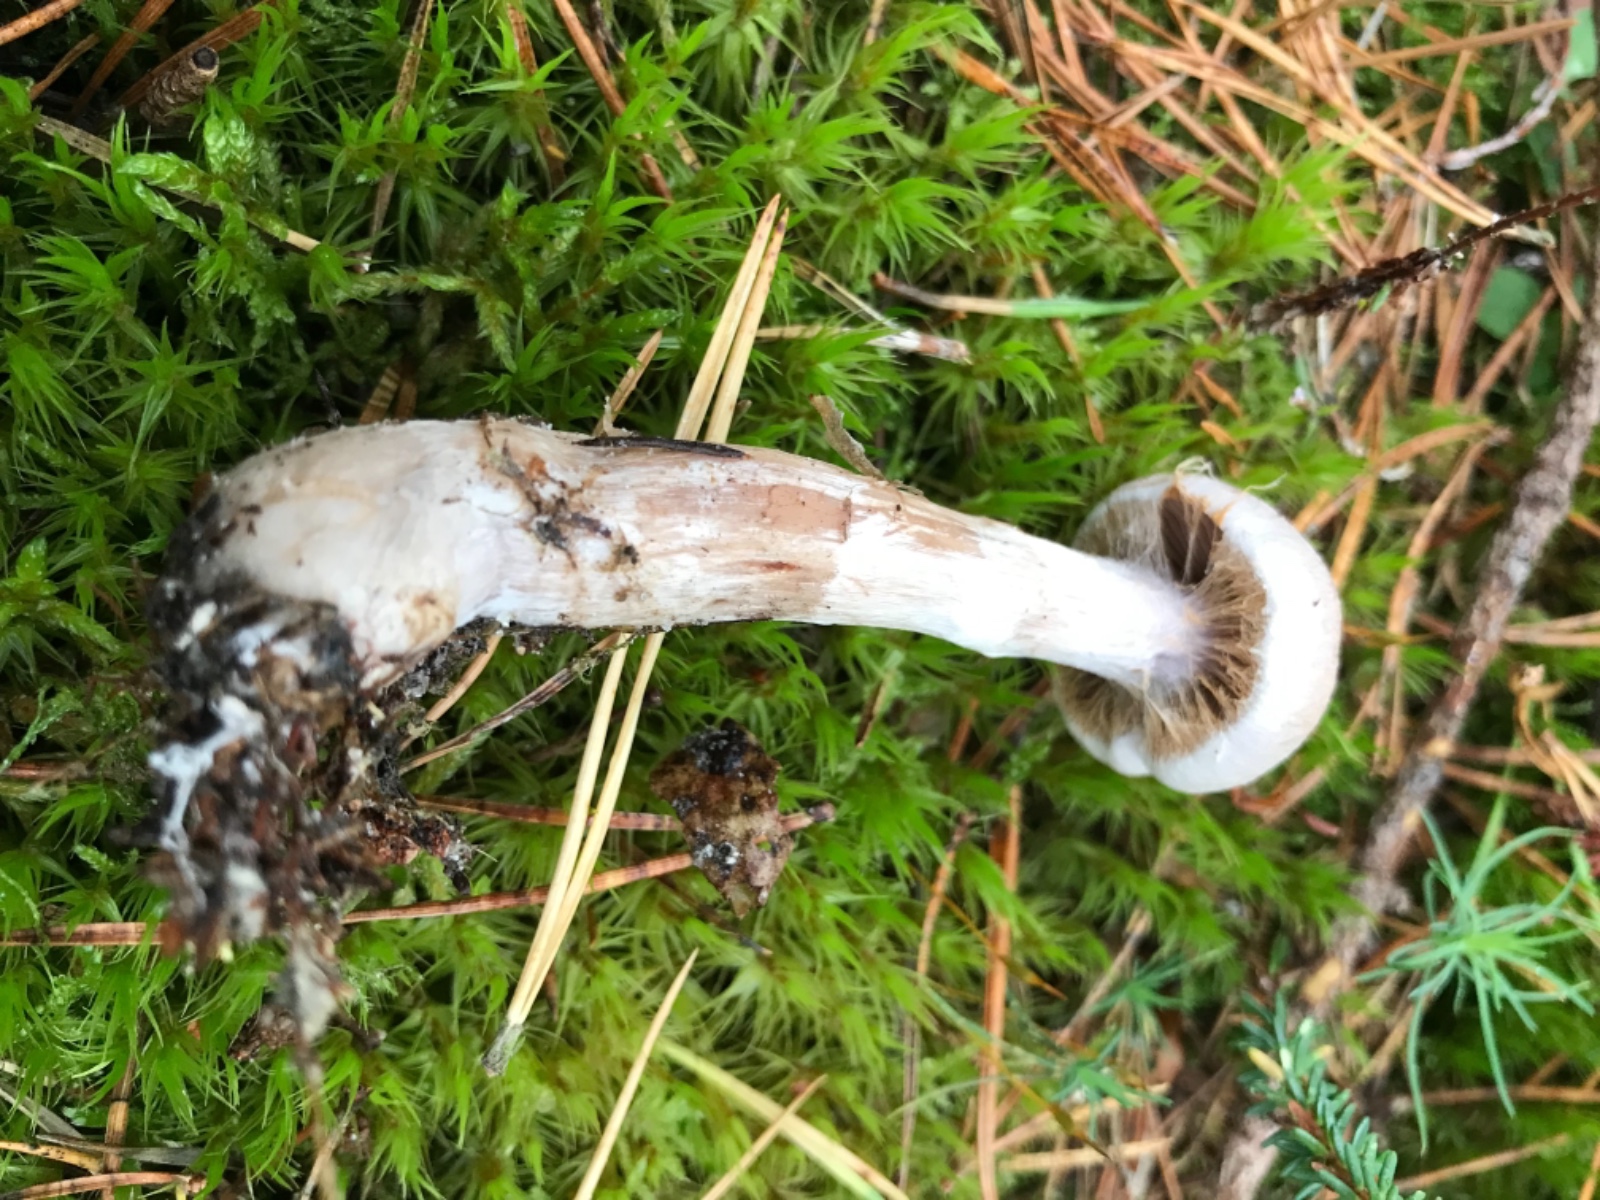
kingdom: Fungi
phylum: Basidiomycota
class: Agaricomycetes
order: Agaricales
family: Cortinariaceae
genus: Cortinarius
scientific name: Cortinarius malachius
